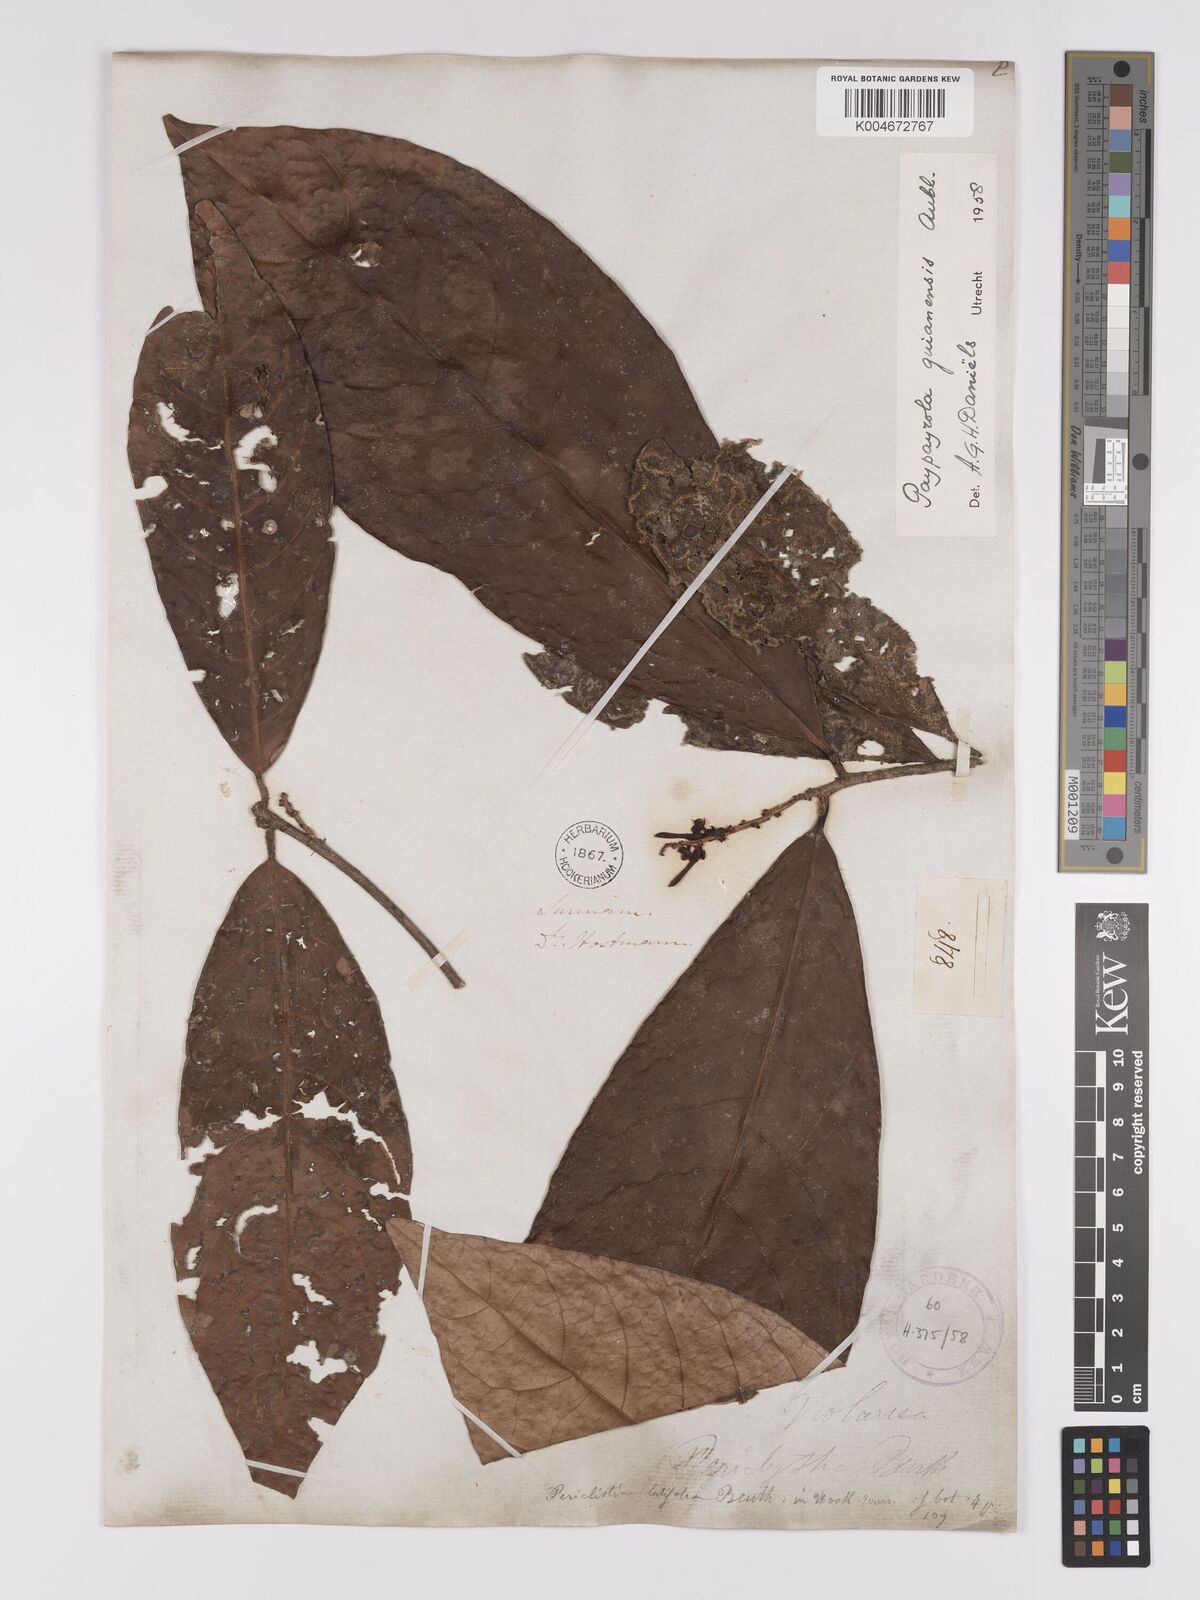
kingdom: Plantae
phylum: Tracheophyta
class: Magnoliopsida
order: Malpighiales
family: Violaceae
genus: Paypayrola
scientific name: Paypayrola guianensis
